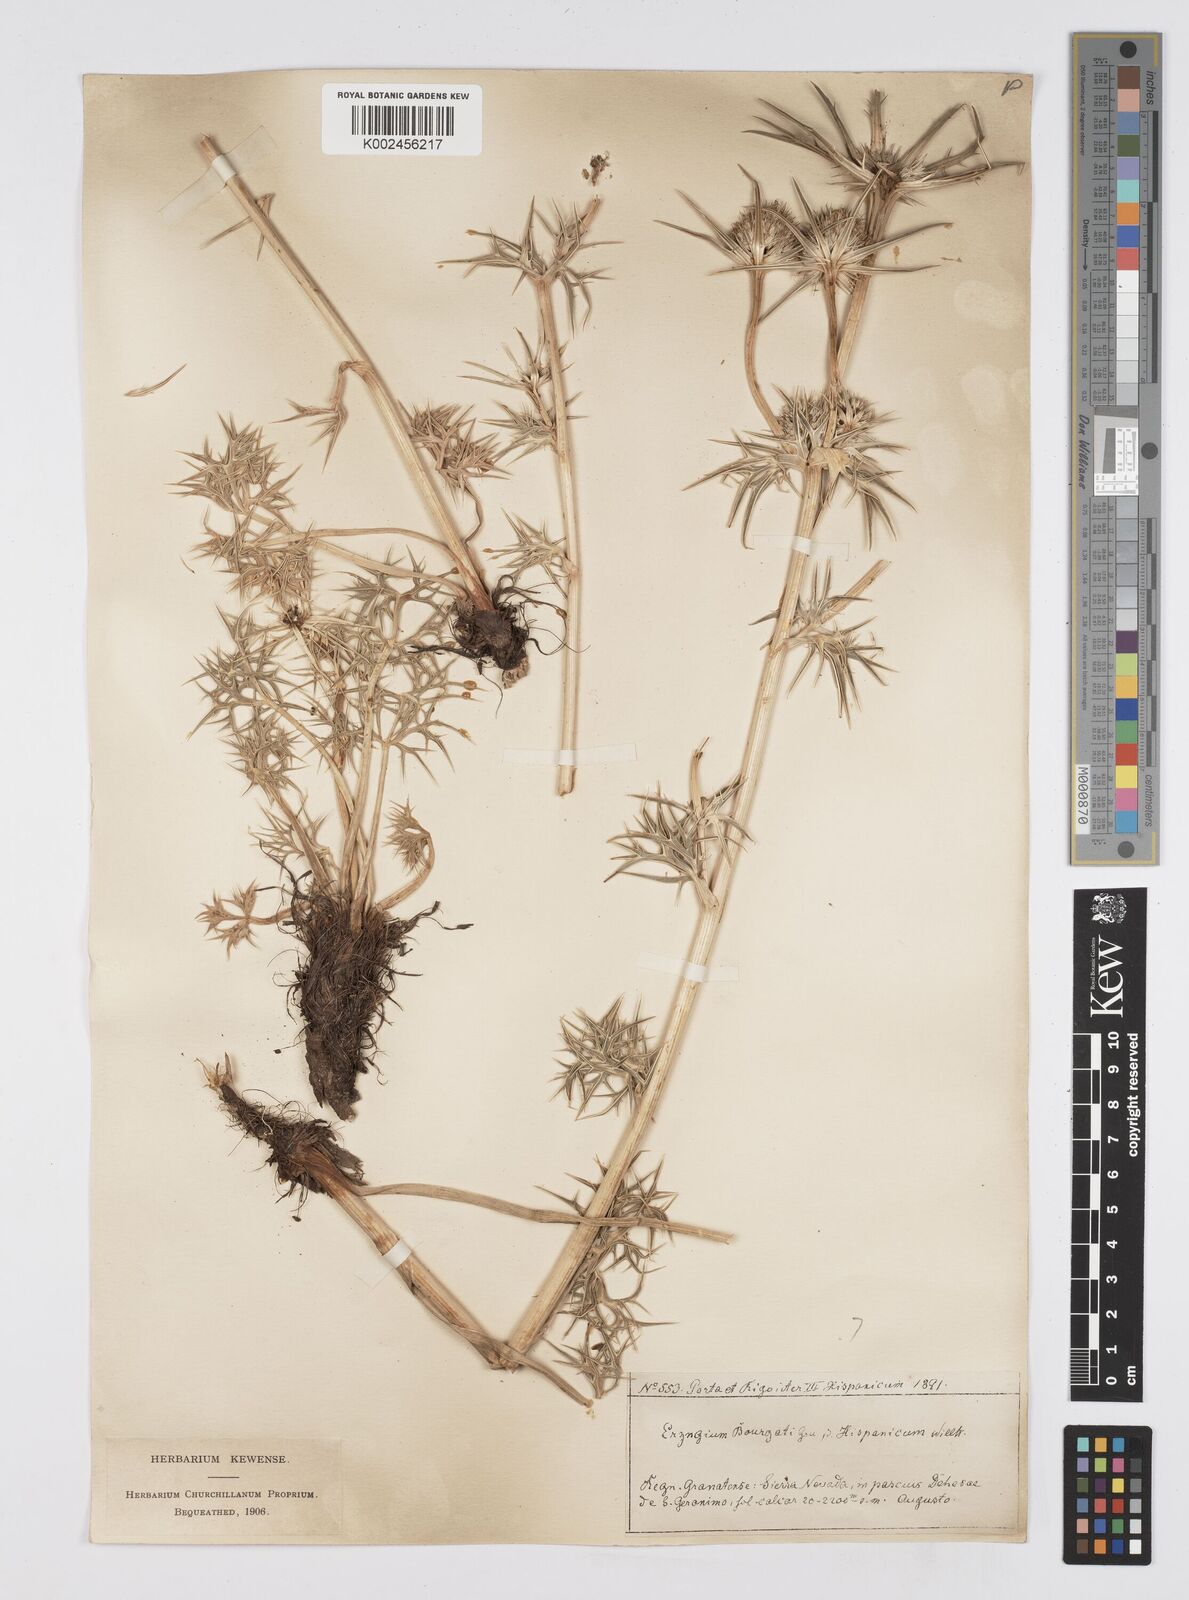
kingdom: Plantae
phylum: Tracheophyta
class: Magnoliopsida
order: Apiales
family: Apiaceae
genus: Eryngium
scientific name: Eryngium bourgatii
